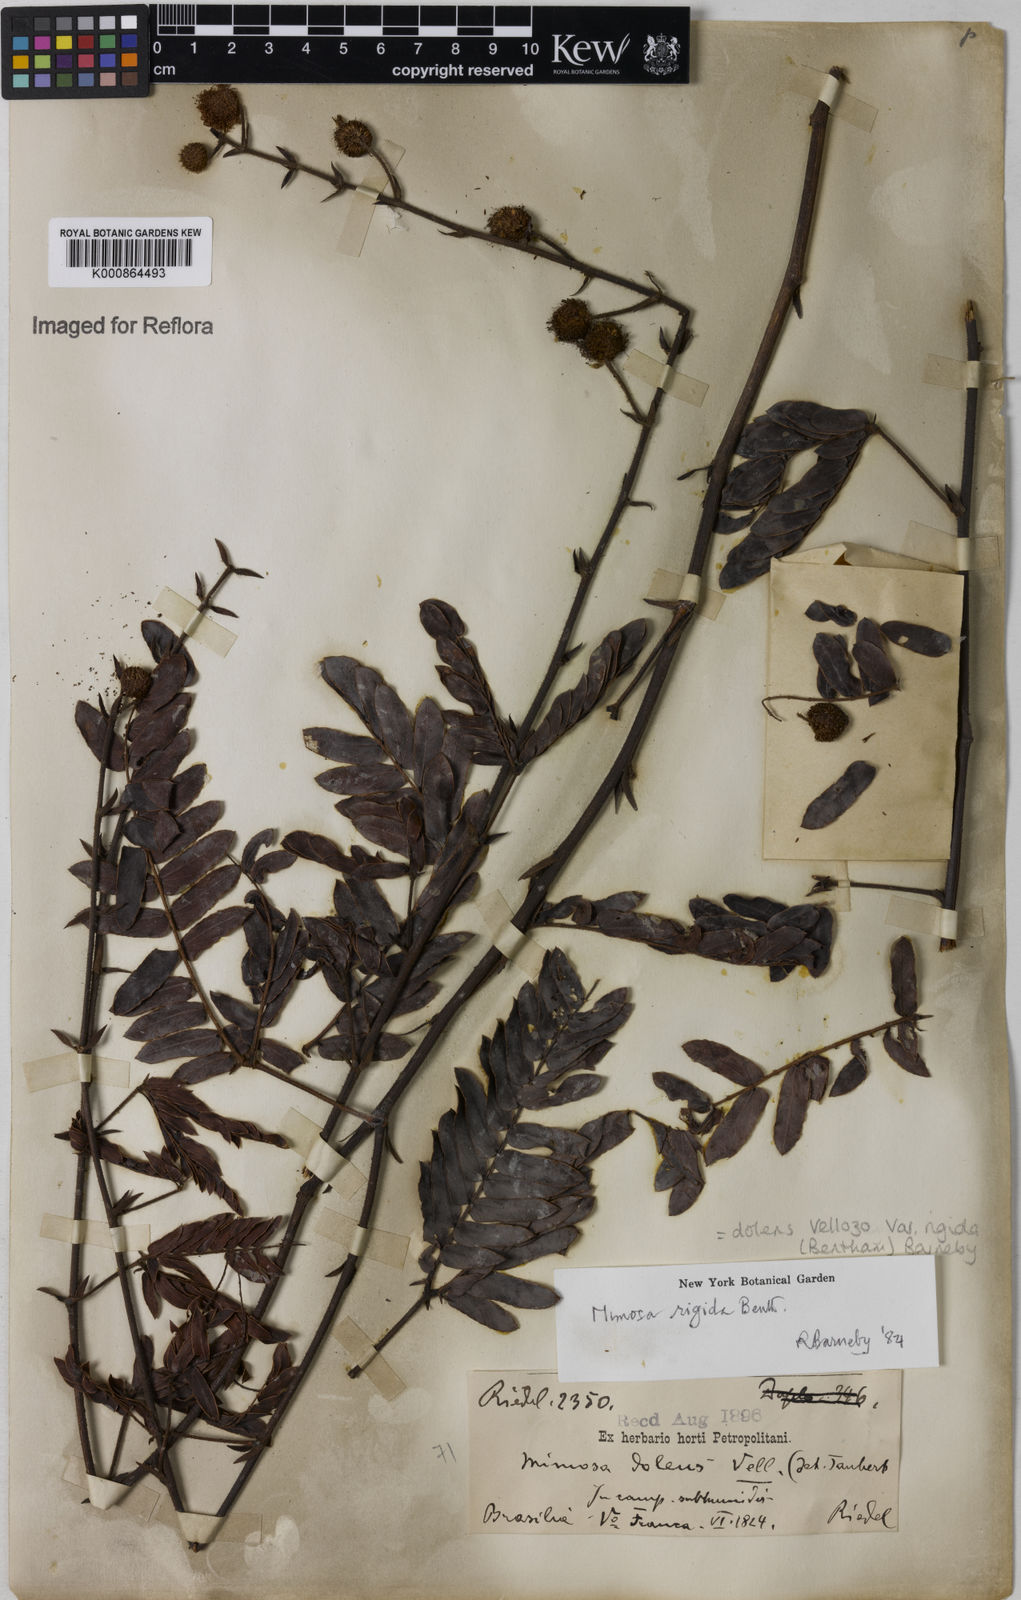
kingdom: Plantae
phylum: Tracheophyta
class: Magnoliopsida
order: Fabales
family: Fabaceae
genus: Mimosa
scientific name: Mimosa dolens
